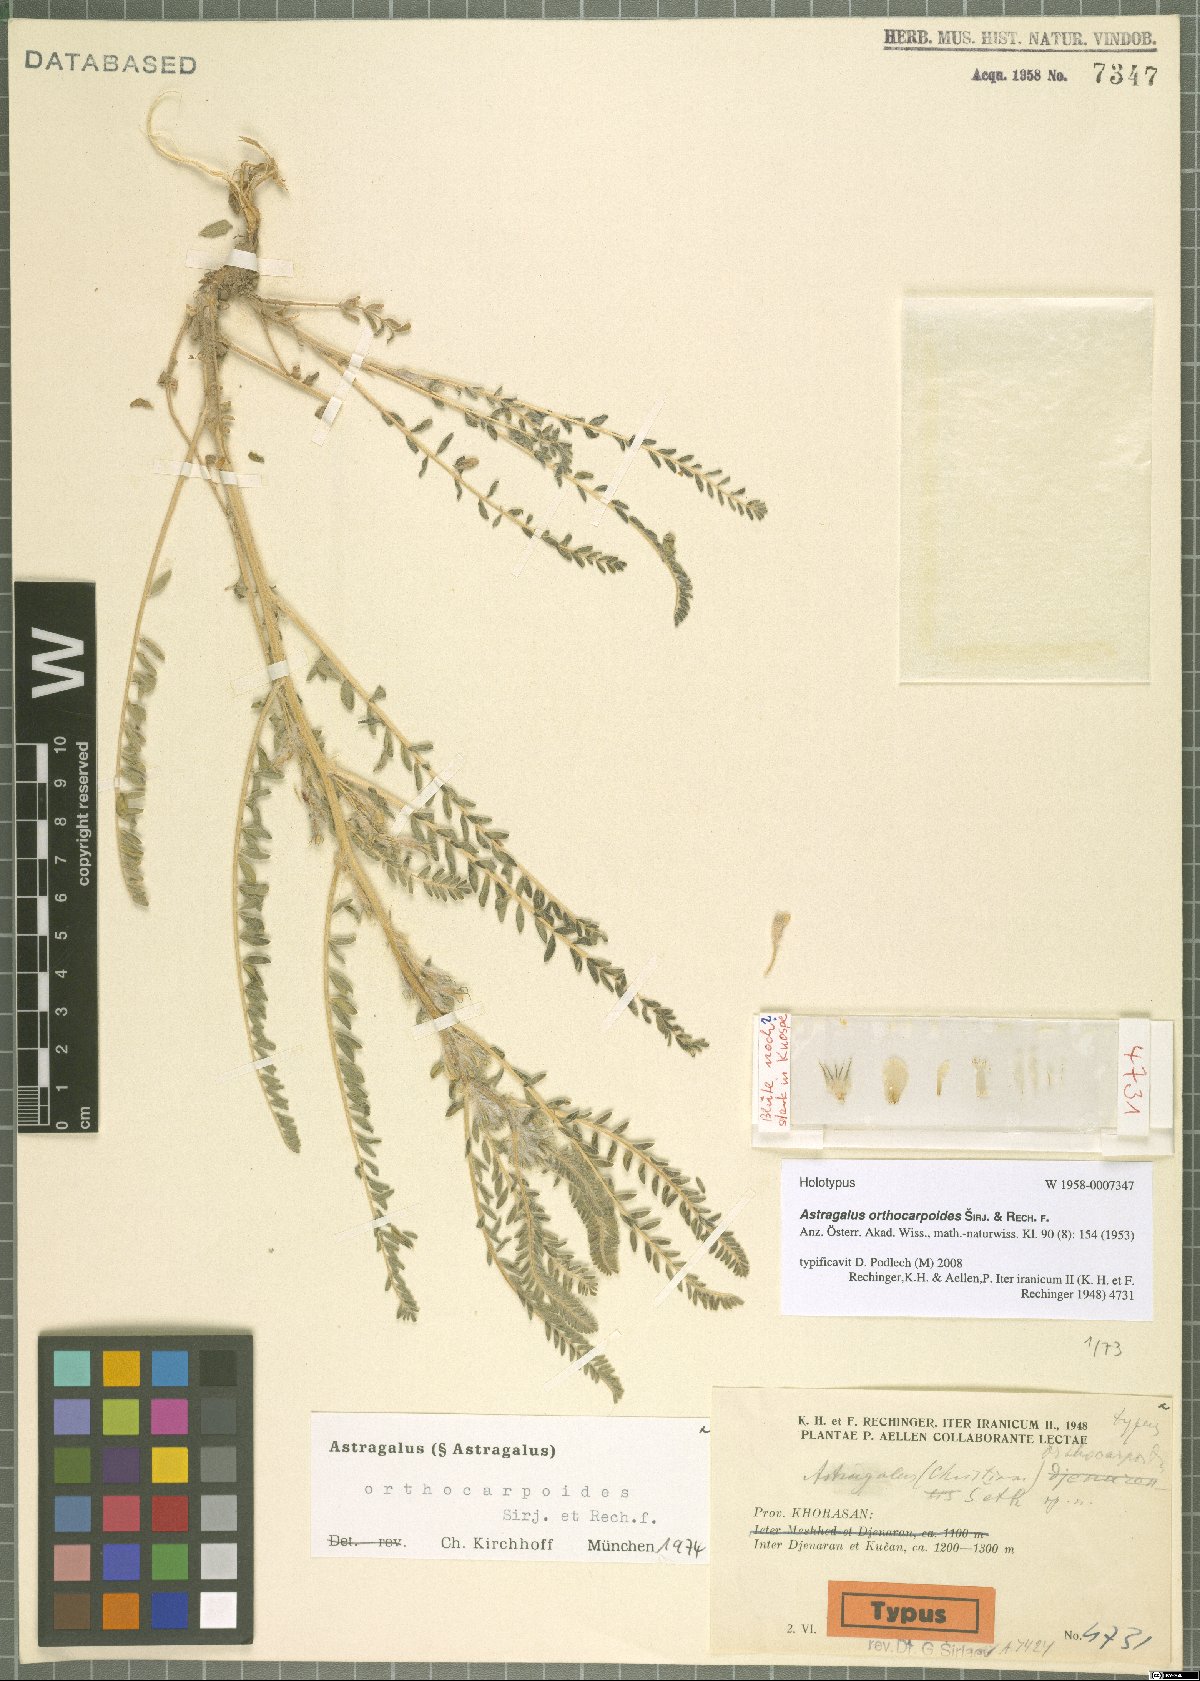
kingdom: Plantae
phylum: Tracheophyta
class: Magnoliopsida
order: Fabales
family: Fabaceae
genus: Astragalus
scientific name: Astragalus orthocarpoides
